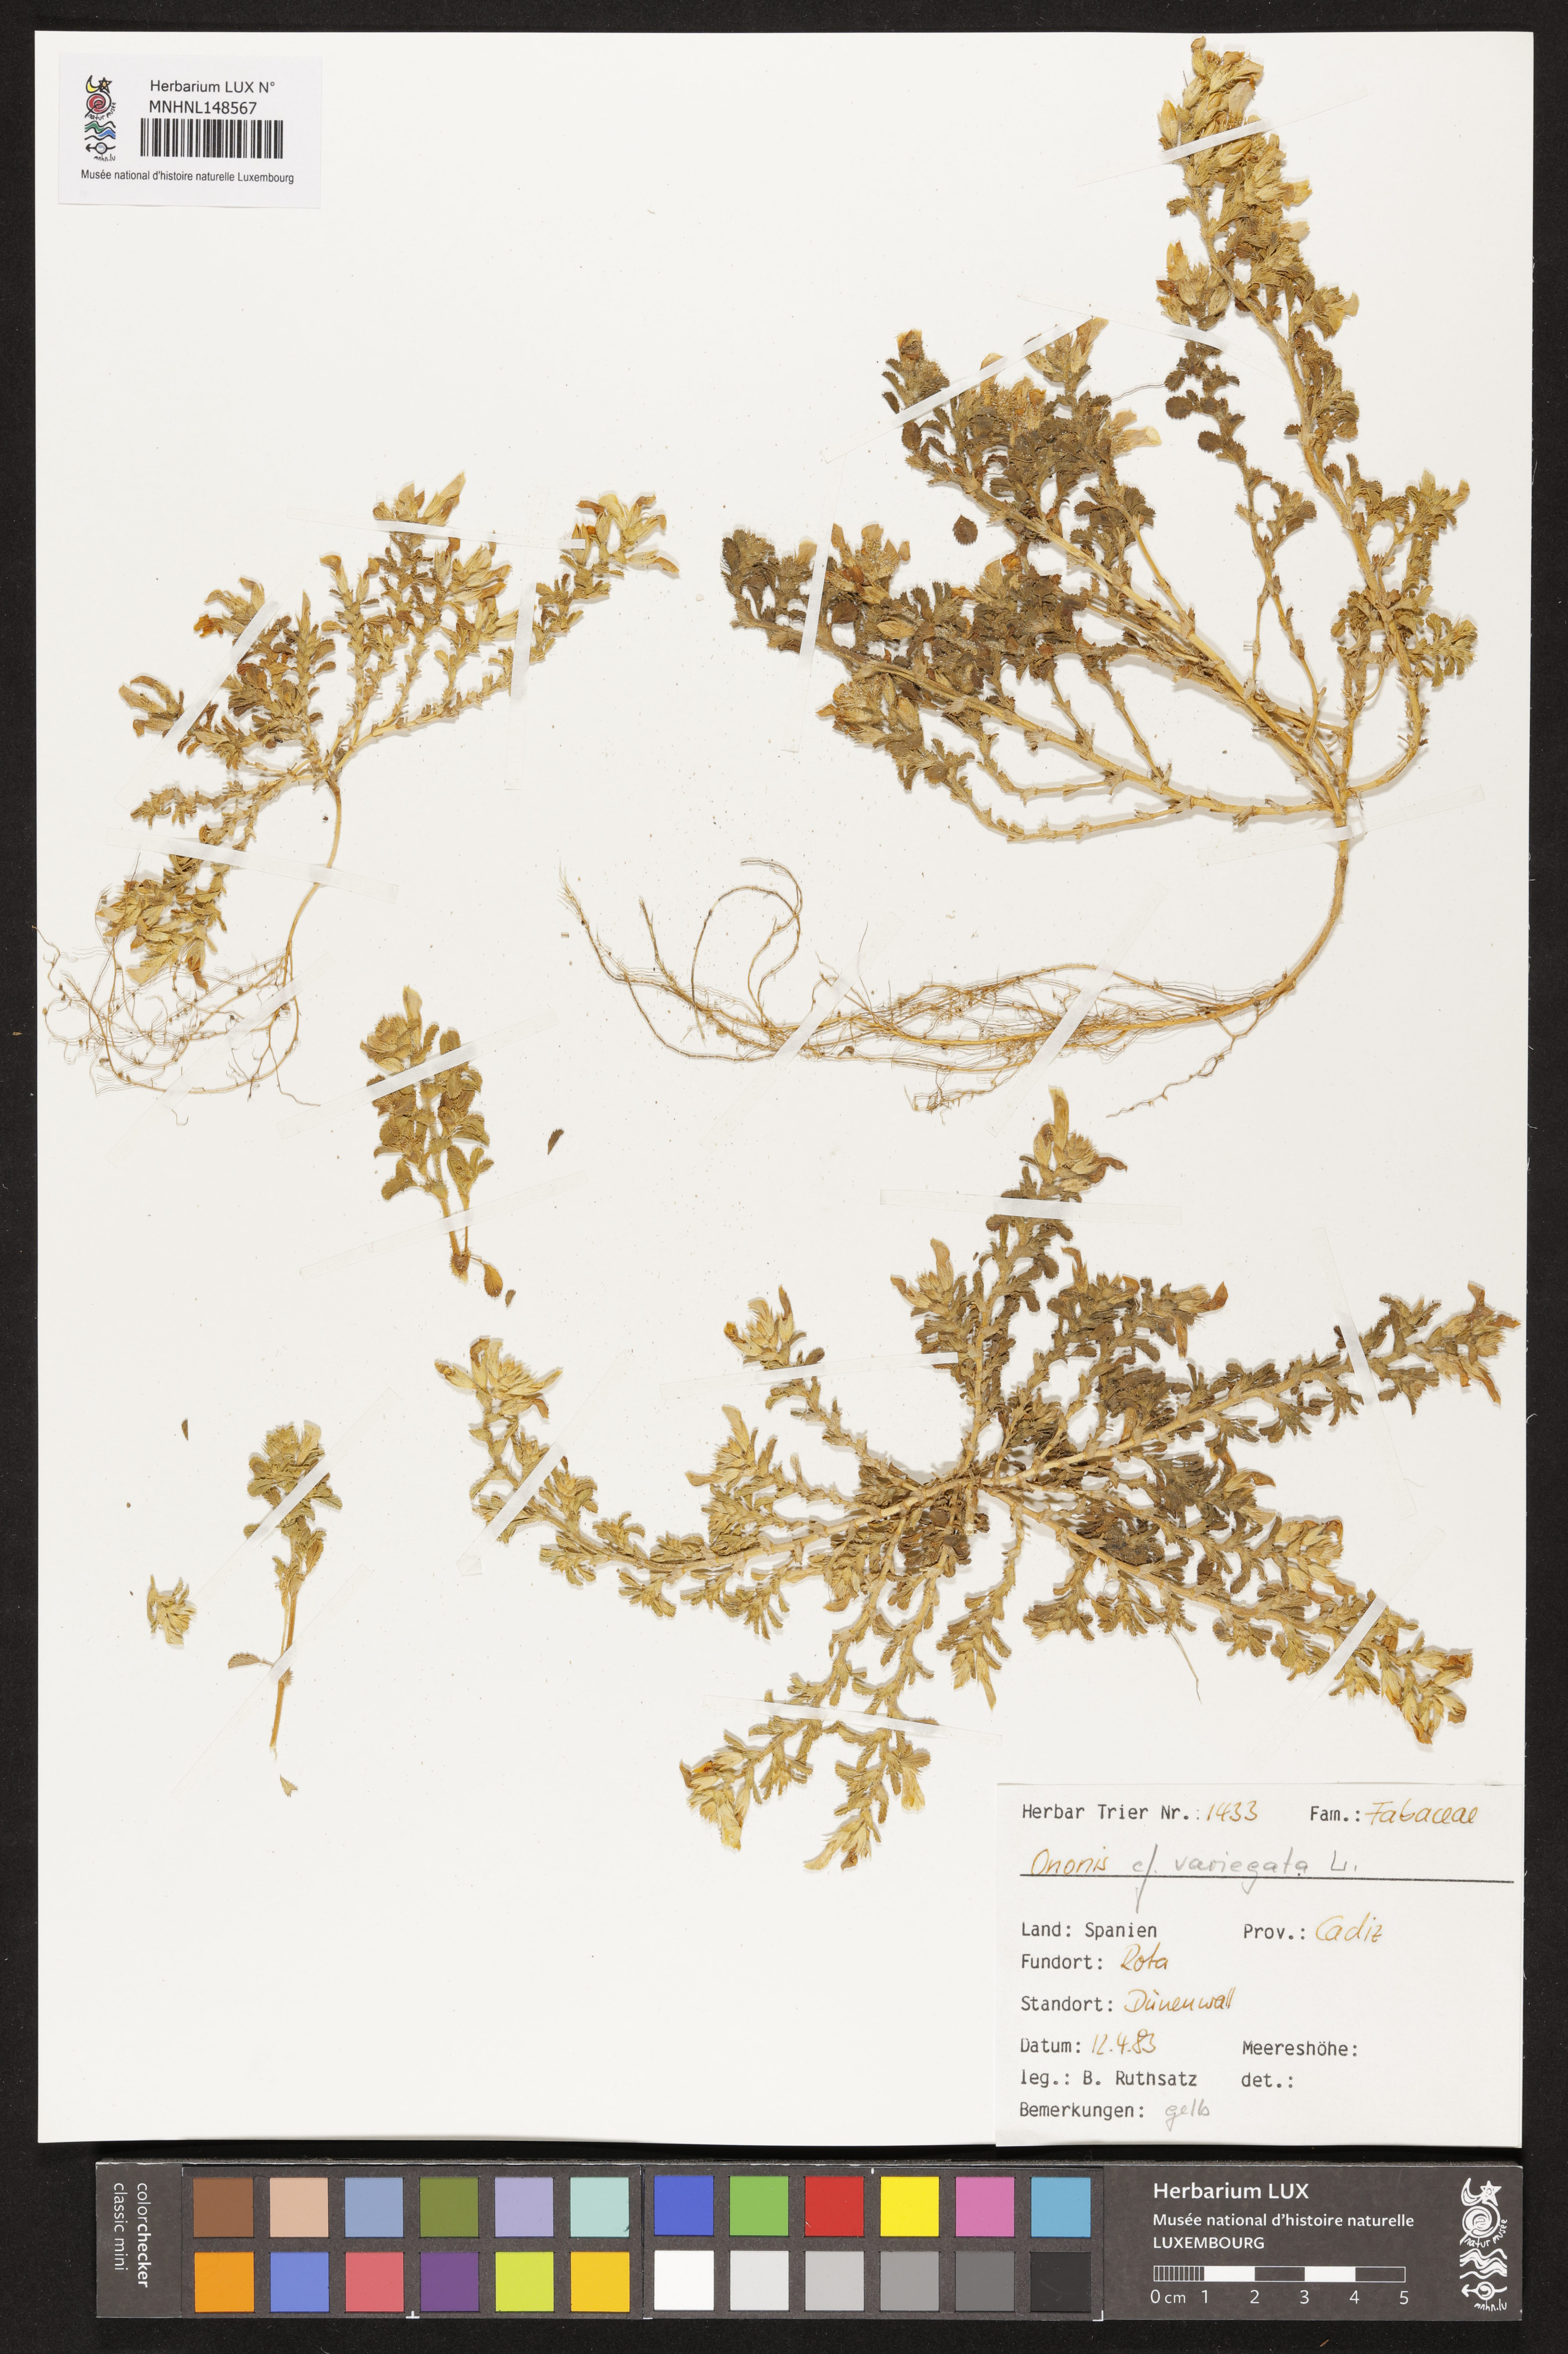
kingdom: Plantae
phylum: Tracheophyta
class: Magnoliopsida
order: Fabales
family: Fabaceae
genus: Ononis
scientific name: Ononis variegata
